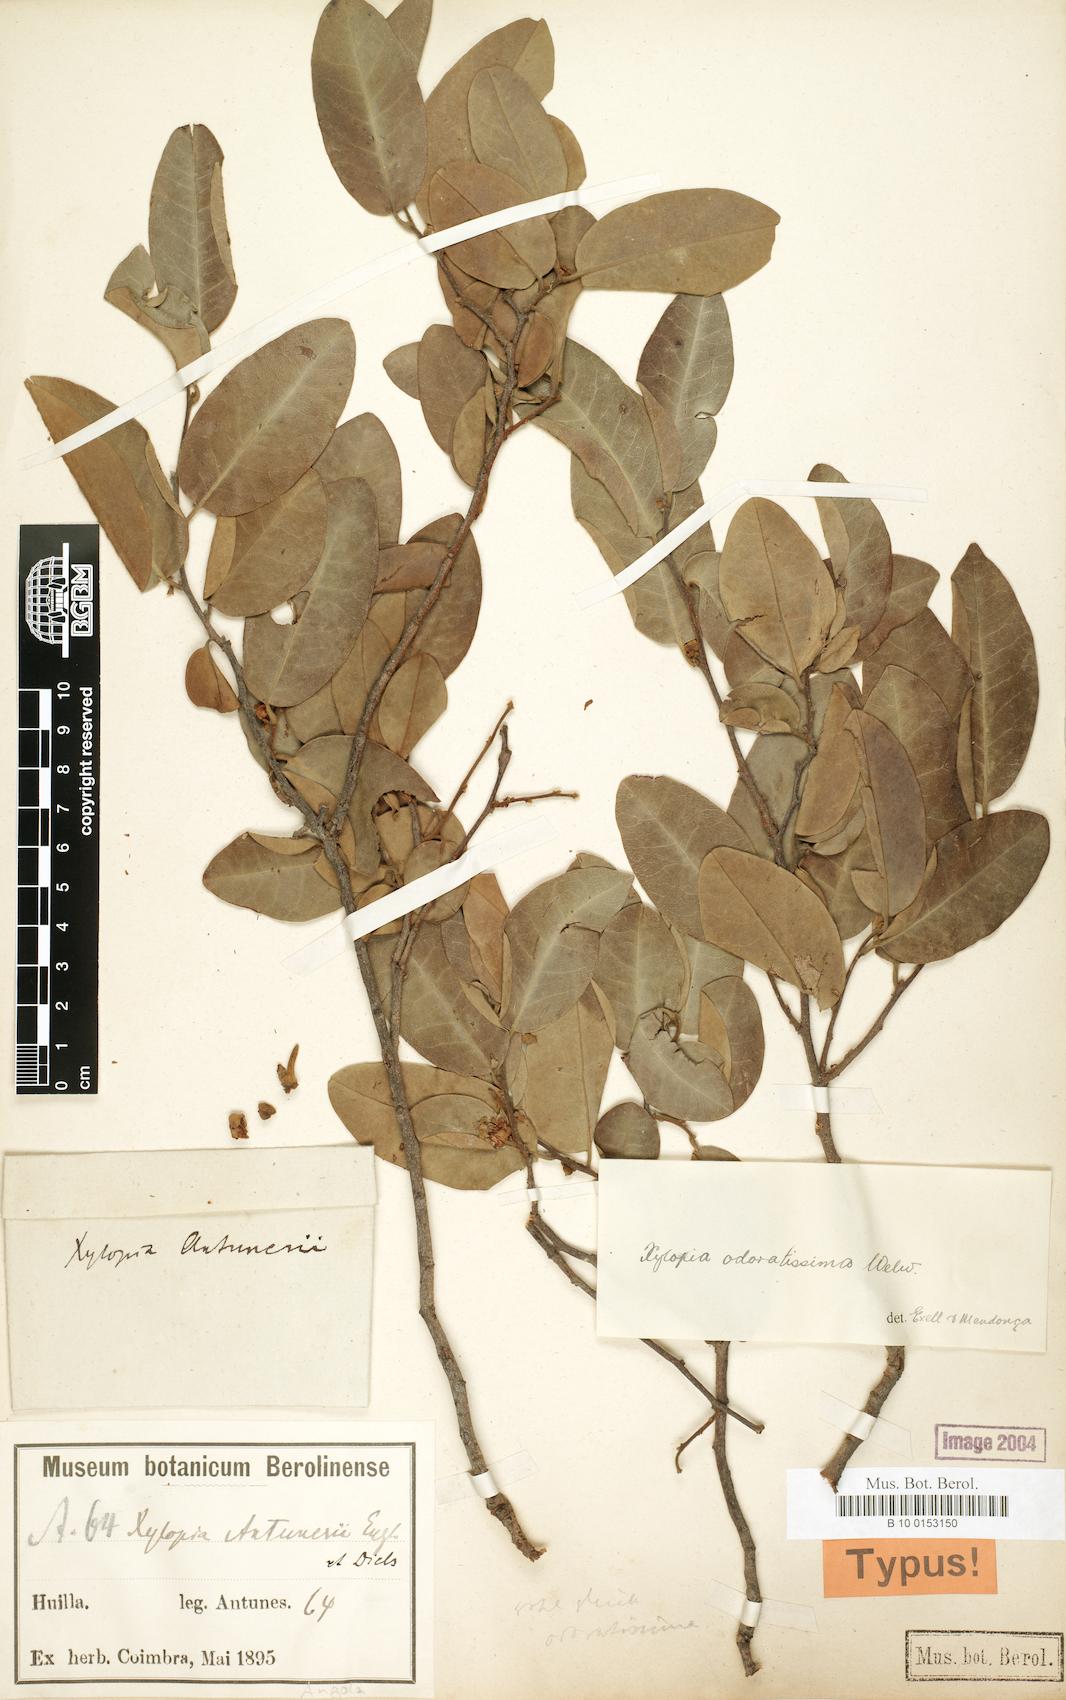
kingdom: Plantae
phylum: Tracheophyta
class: Magnoliopsida
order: Magnoliales
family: Annonaceae
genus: Xylopia
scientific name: Xylopia odoratissima
